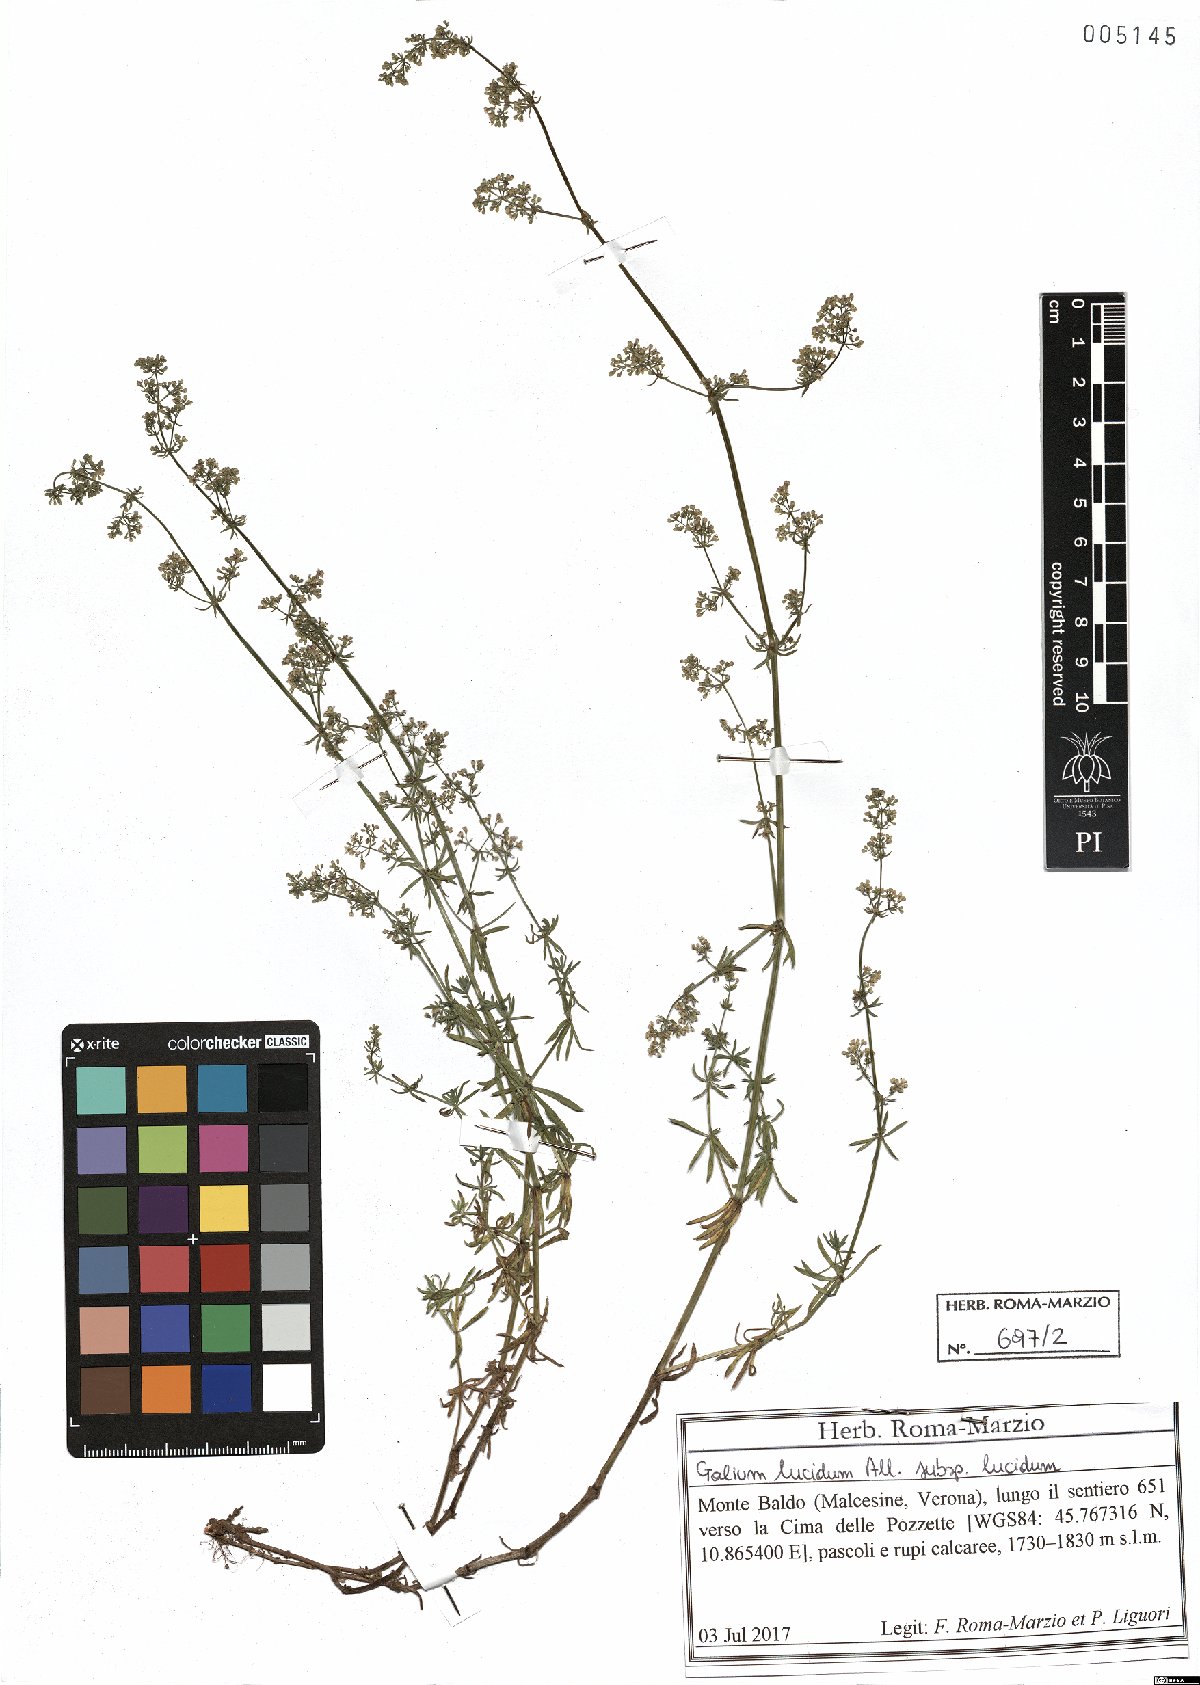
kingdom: Plantae
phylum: Tracheophyta
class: Magnoliopsida
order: Gentianales
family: Rubiaceae
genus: Galium
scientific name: Galium lucidum
